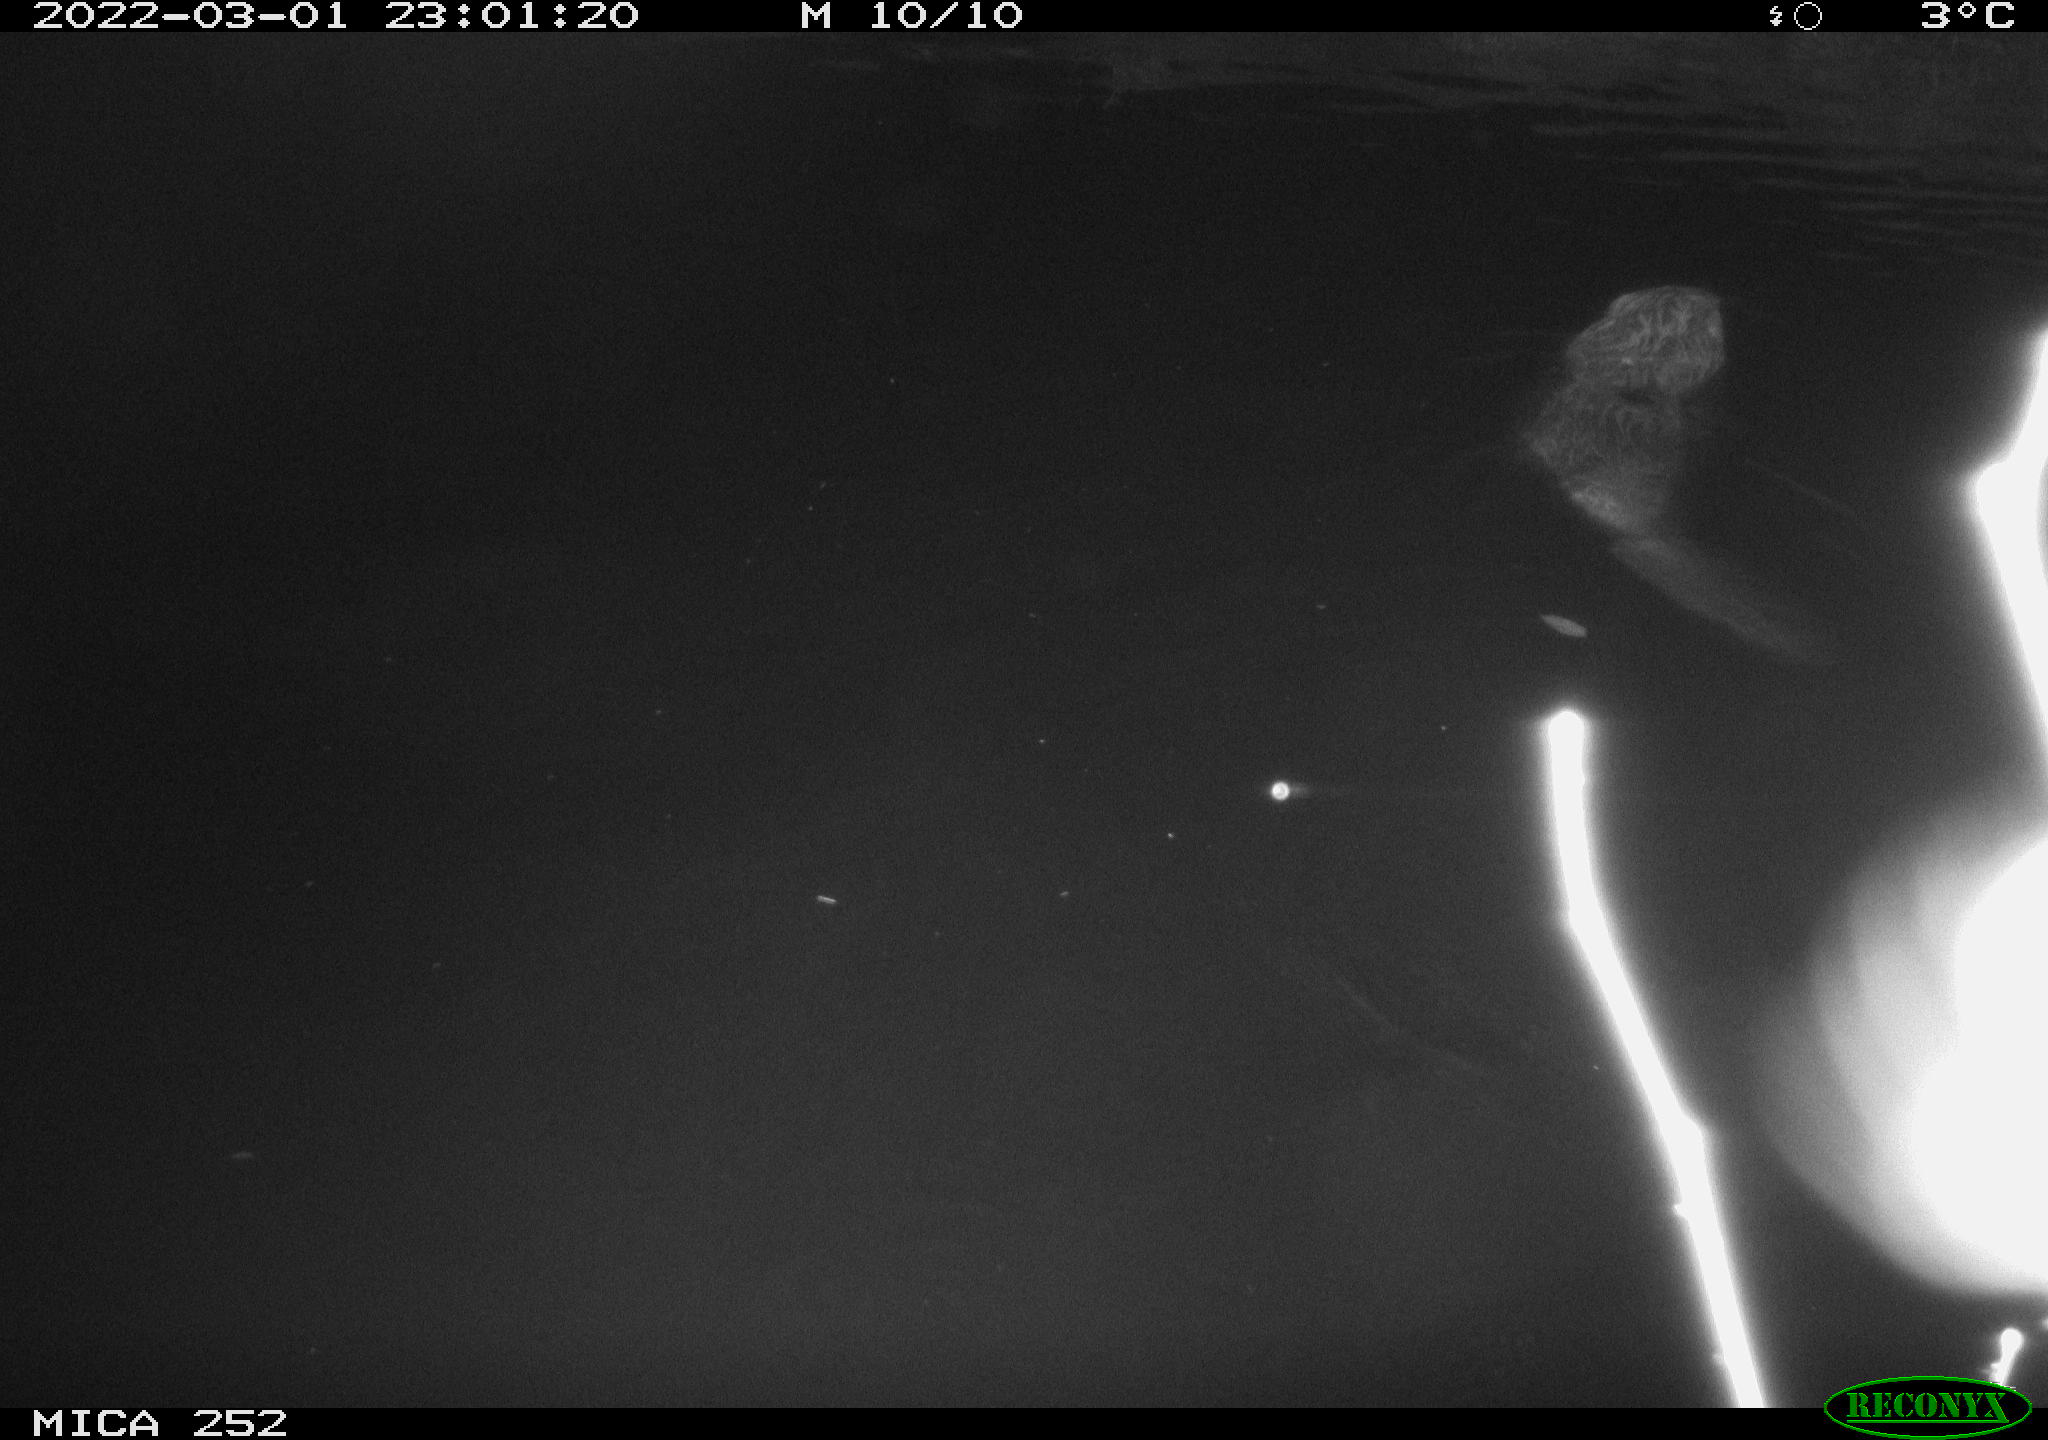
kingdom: Animalia
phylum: Chordata
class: Mammalia
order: Rodentia
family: Castoridae
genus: Castor
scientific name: Castor fiber
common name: Eurasian beaver
